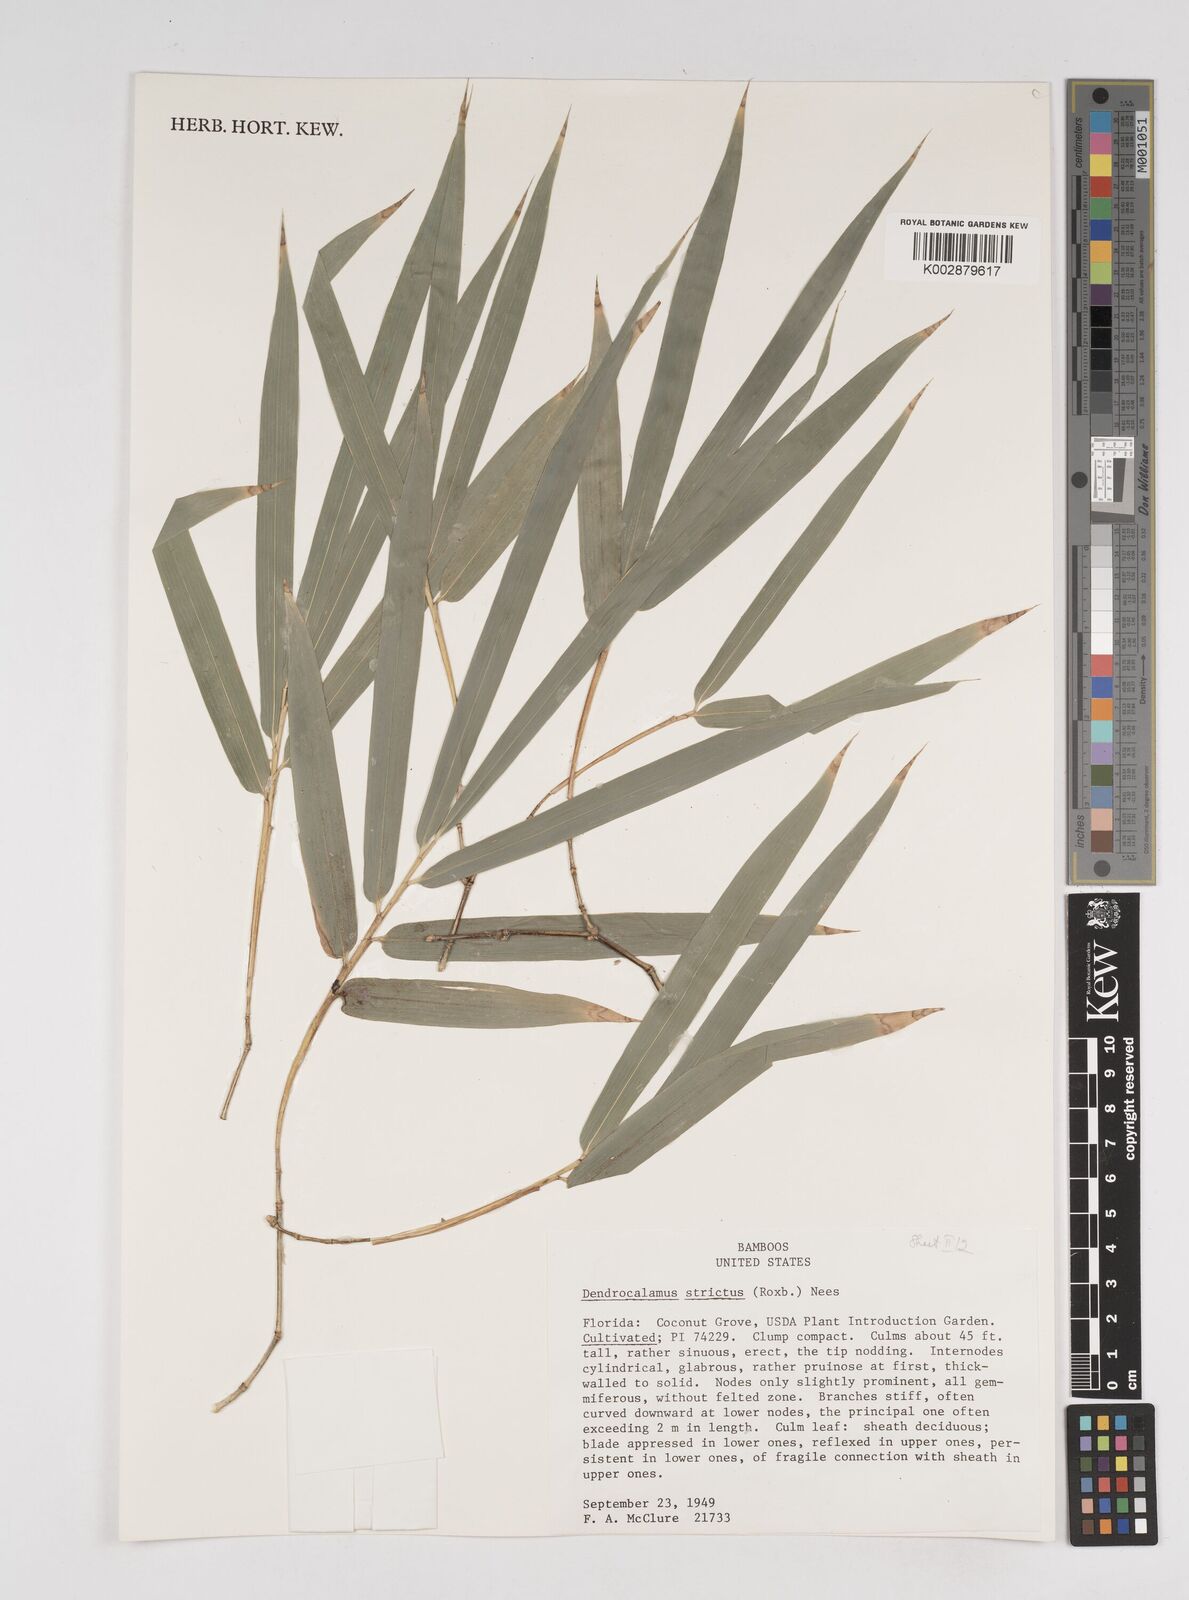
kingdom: Plantae
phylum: Tracheophyta
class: Liliopsida
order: Poales
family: Poaceae
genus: Dendrocalamus
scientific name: Dendrocalamus strictus
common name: Male bamboo
